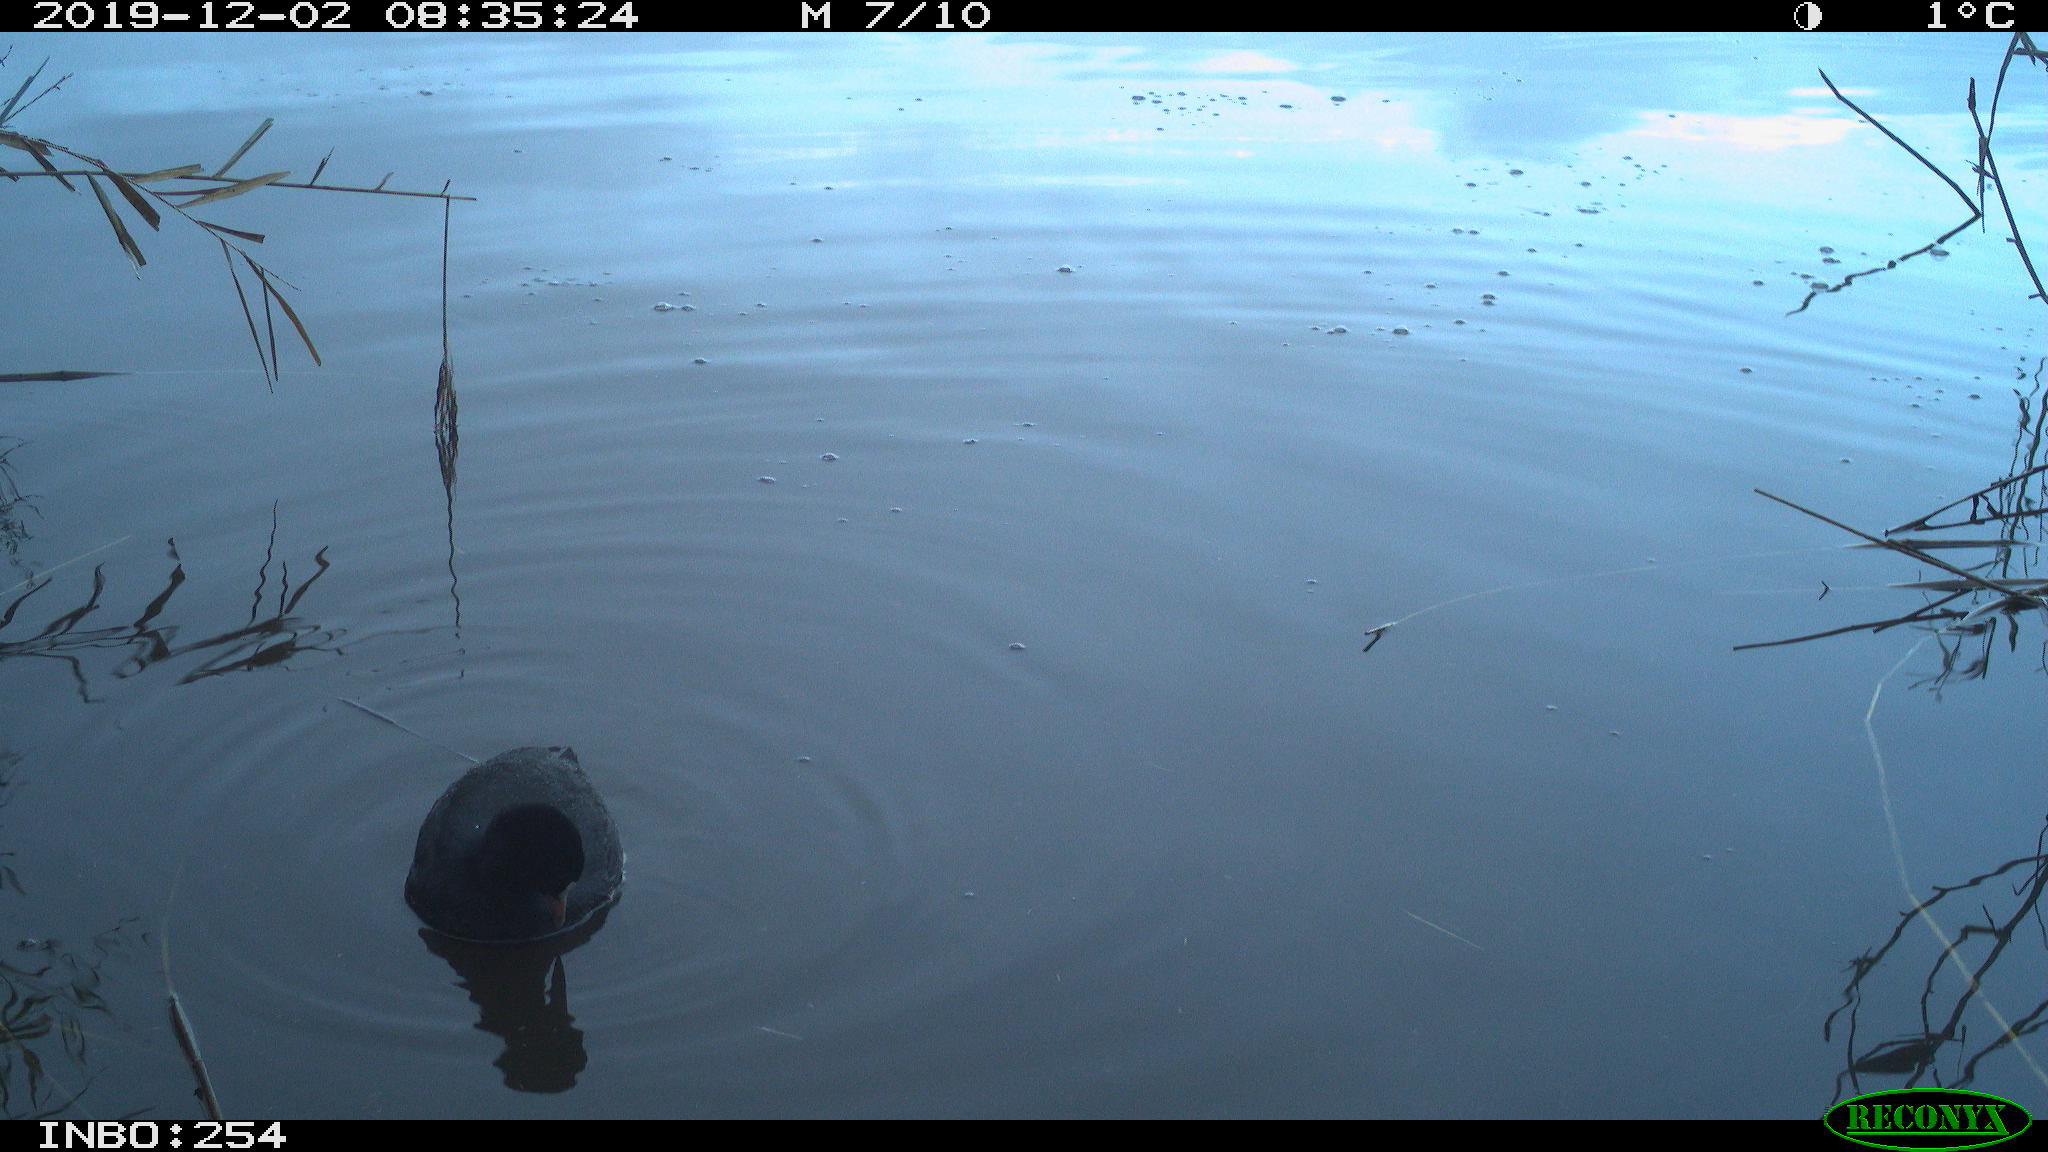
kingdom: Animalia
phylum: Chordata
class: Aves
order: Gruiformes
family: Rallidae
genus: Fulica
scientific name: Fulica atra
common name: Eurasian coot
